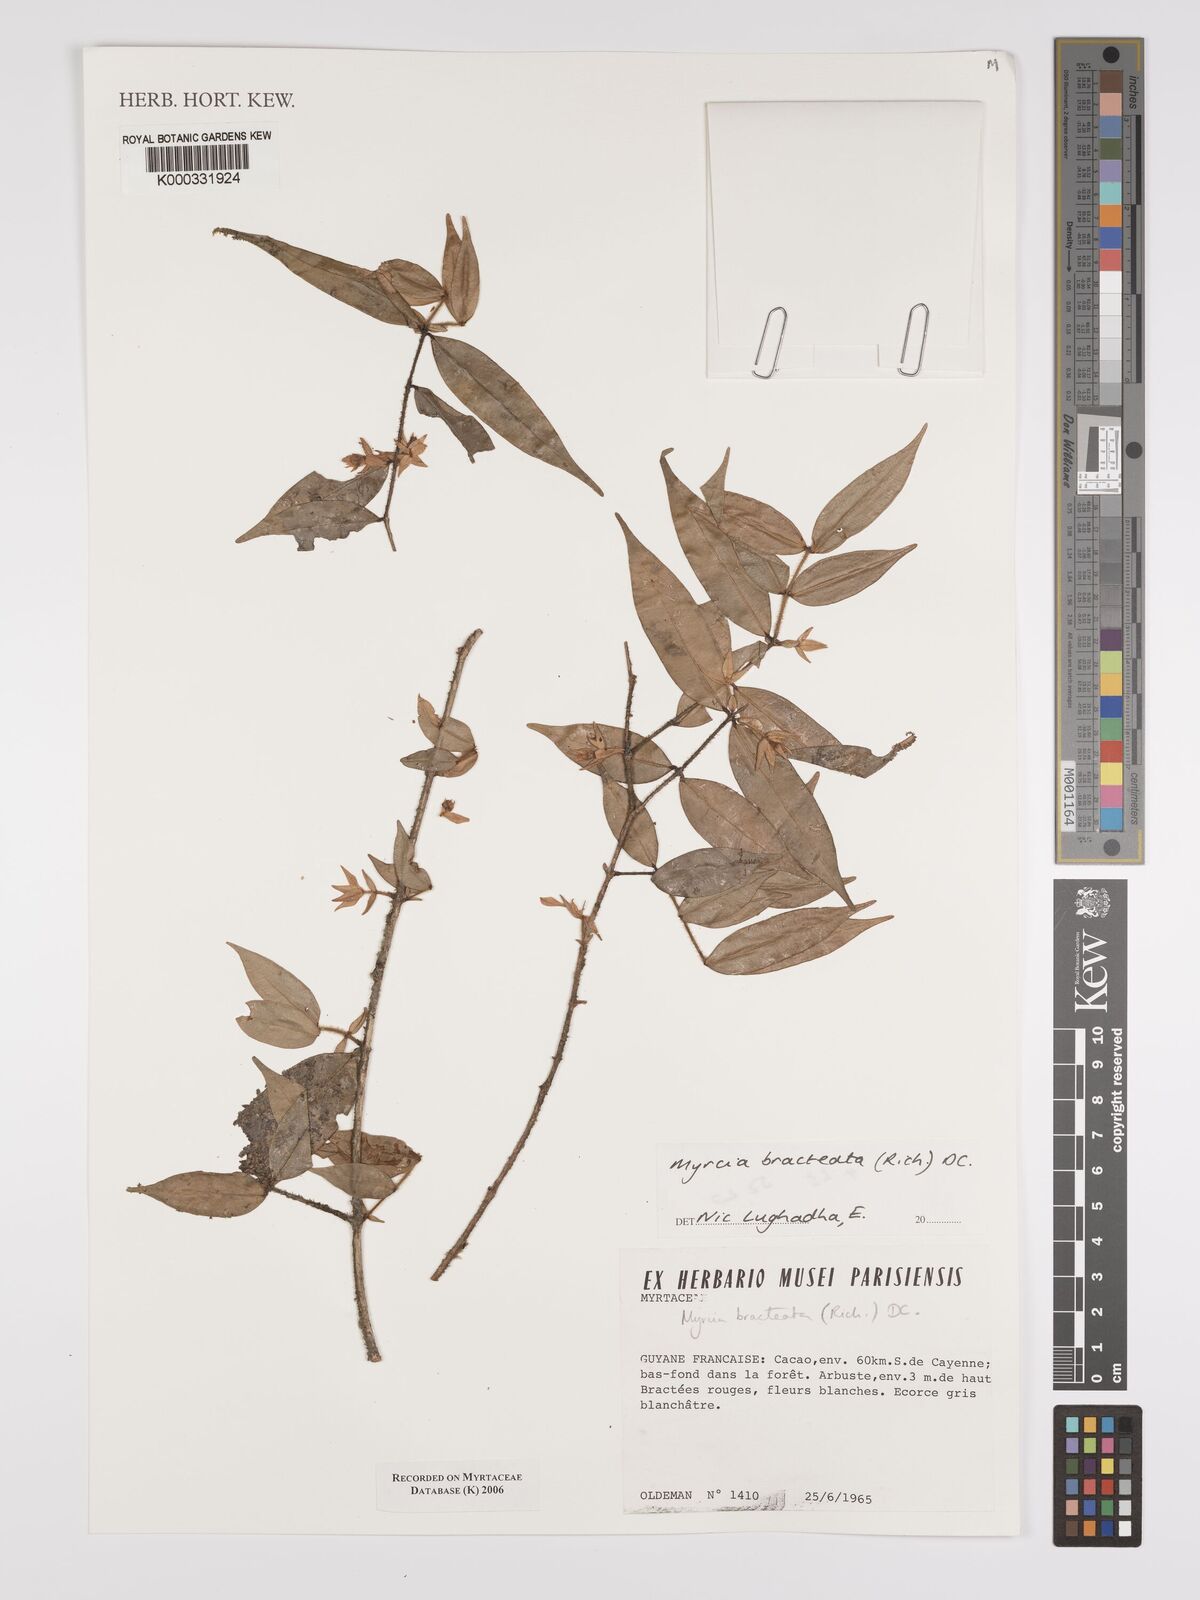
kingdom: Plantae
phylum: Tracheophyta
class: Magnoliopsida
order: Myrtales
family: Myrtaceae
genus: Myrcia
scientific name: Myrcia bracteata
